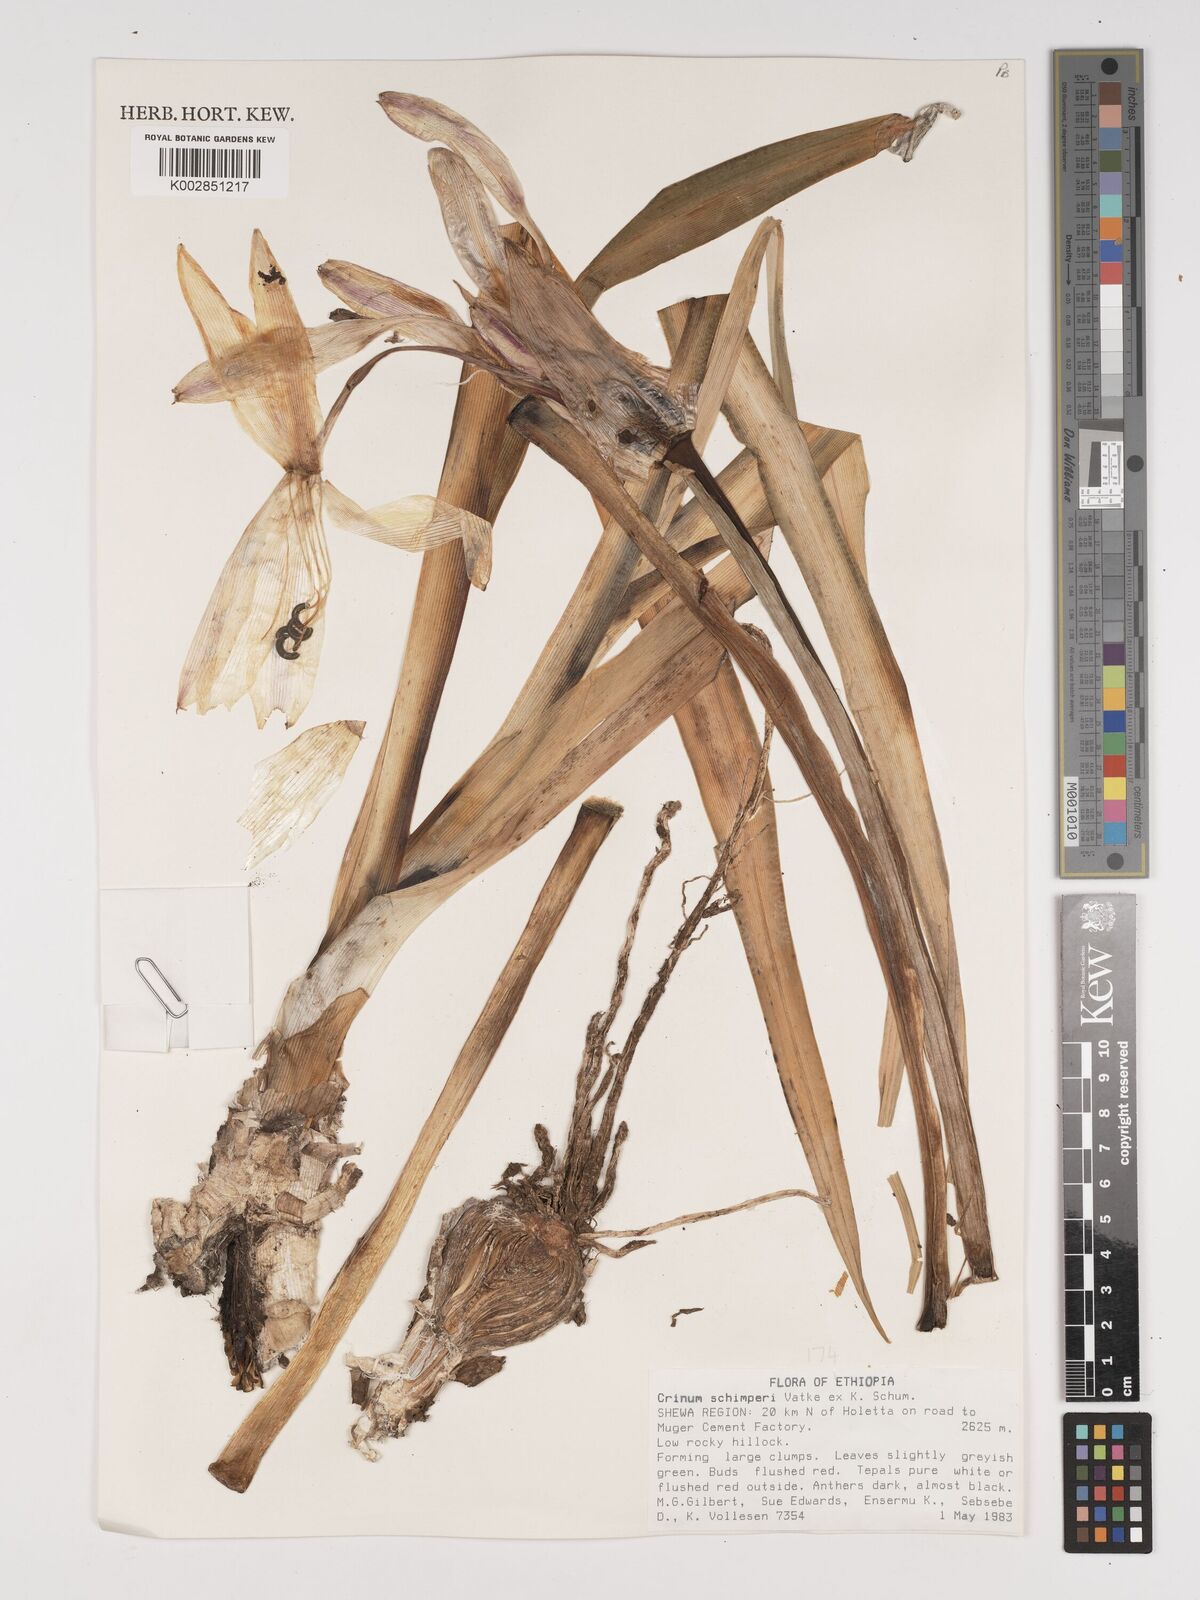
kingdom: Plantae
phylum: Tracheophyta
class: Liliopsida
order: Asparagales
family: Amaryllidaceae
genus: Crinum
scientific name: Crinum abyssinicum
